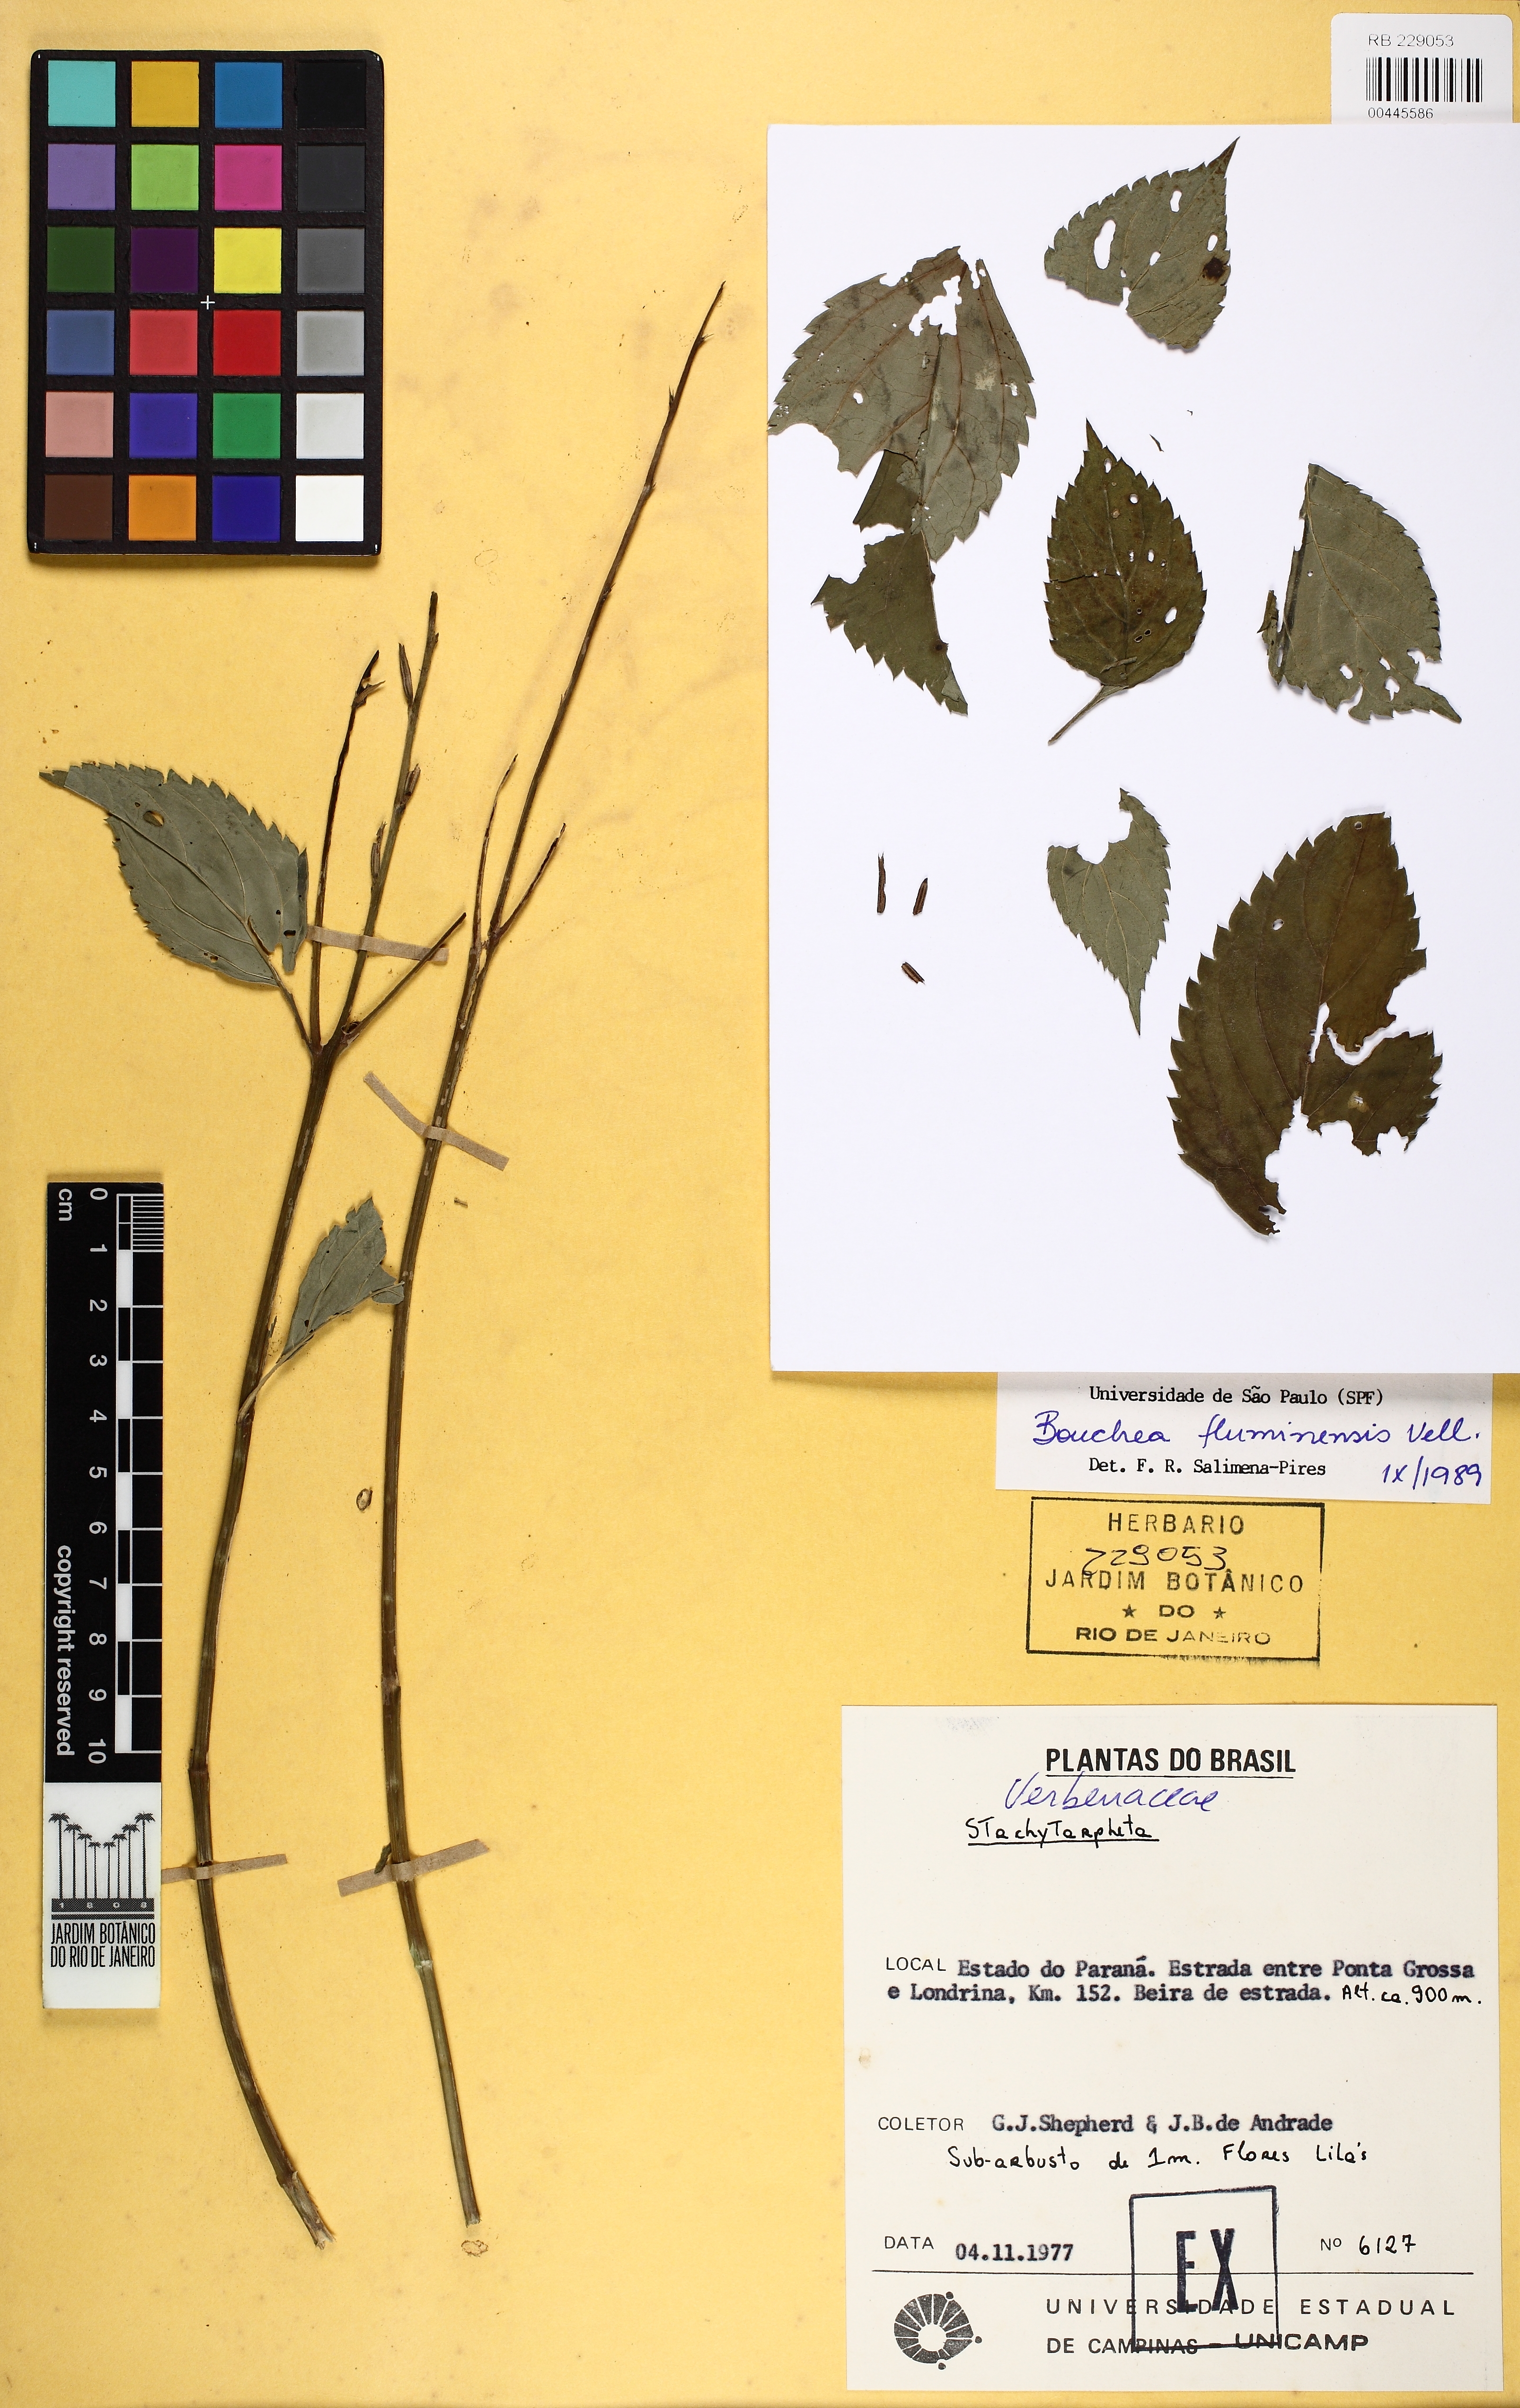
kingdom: Plantae
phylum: Tracheophyta
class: Magnoliopsida
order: Lamiales
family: Verbenaceae
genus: Bouchea
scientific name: Bouchea pseudogervao
